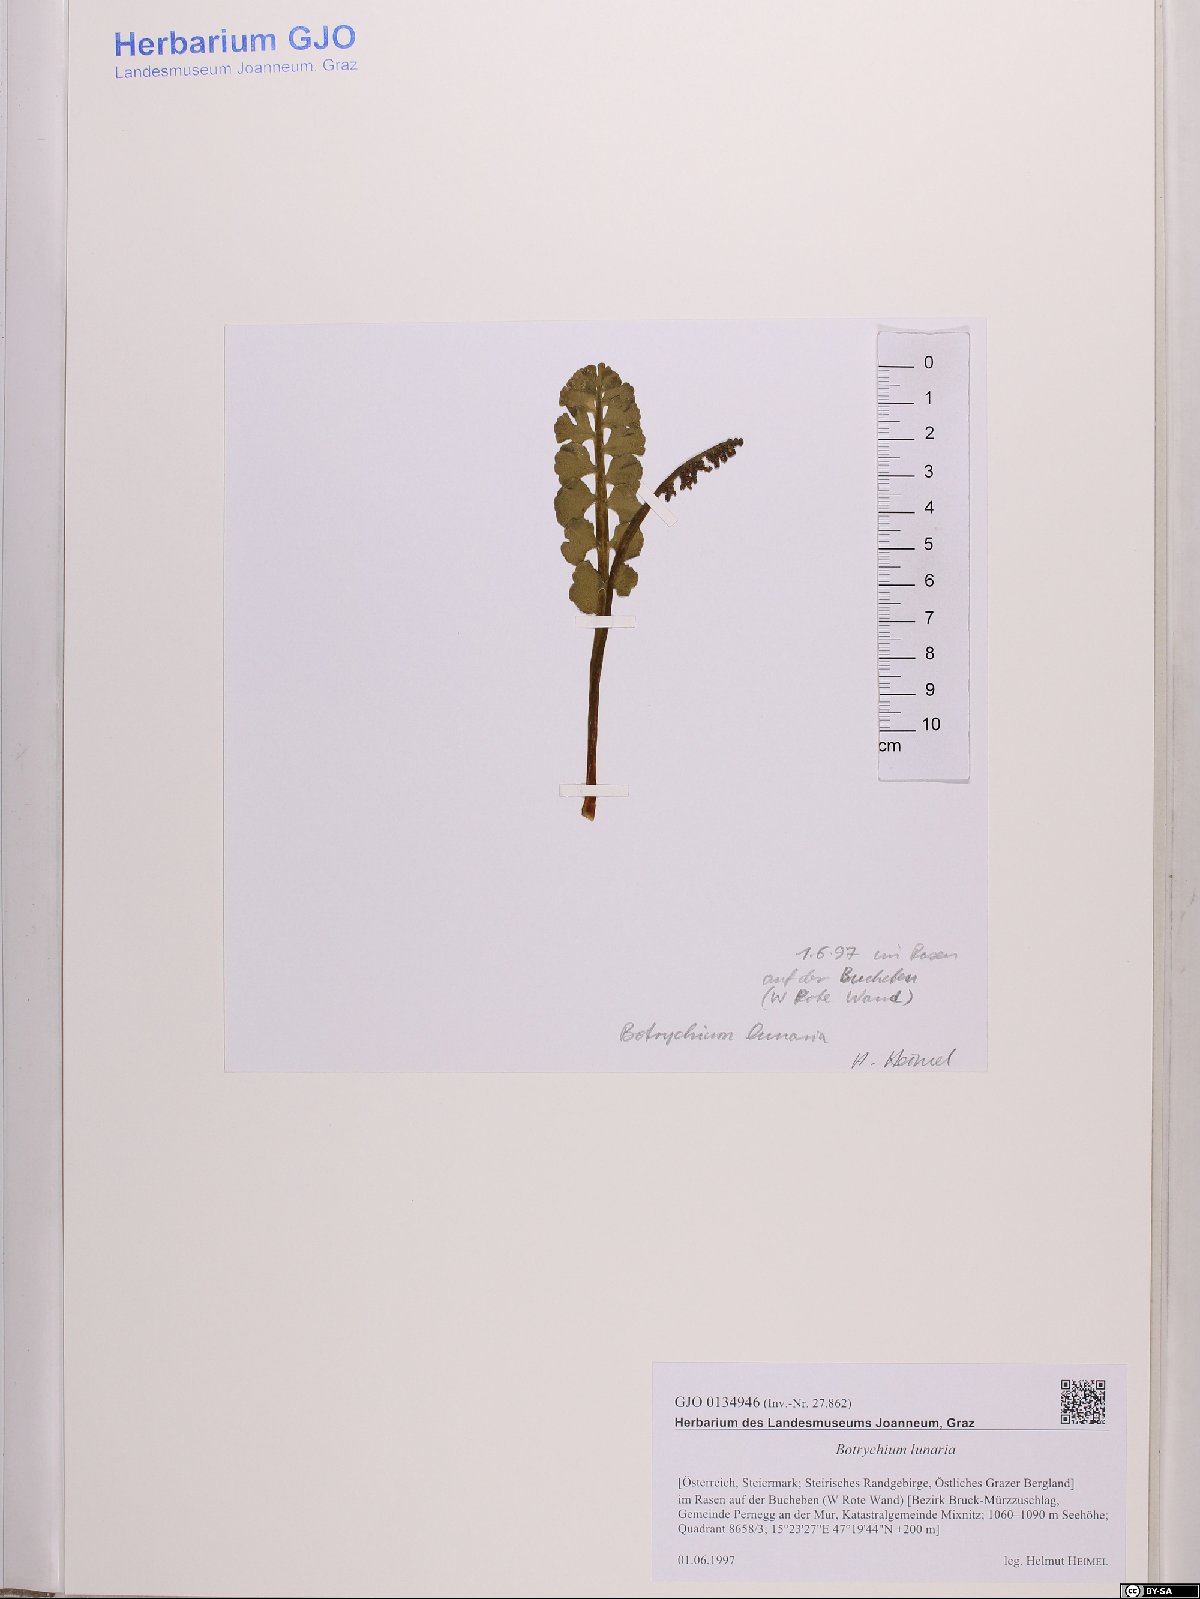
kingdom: Plantae
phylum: Tracheophyta
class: Polypodiopsida
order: Ophioglossales
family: Ophioglossaceae
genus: Botrychium
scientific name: Botrychium lunaria
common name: Moonwort
